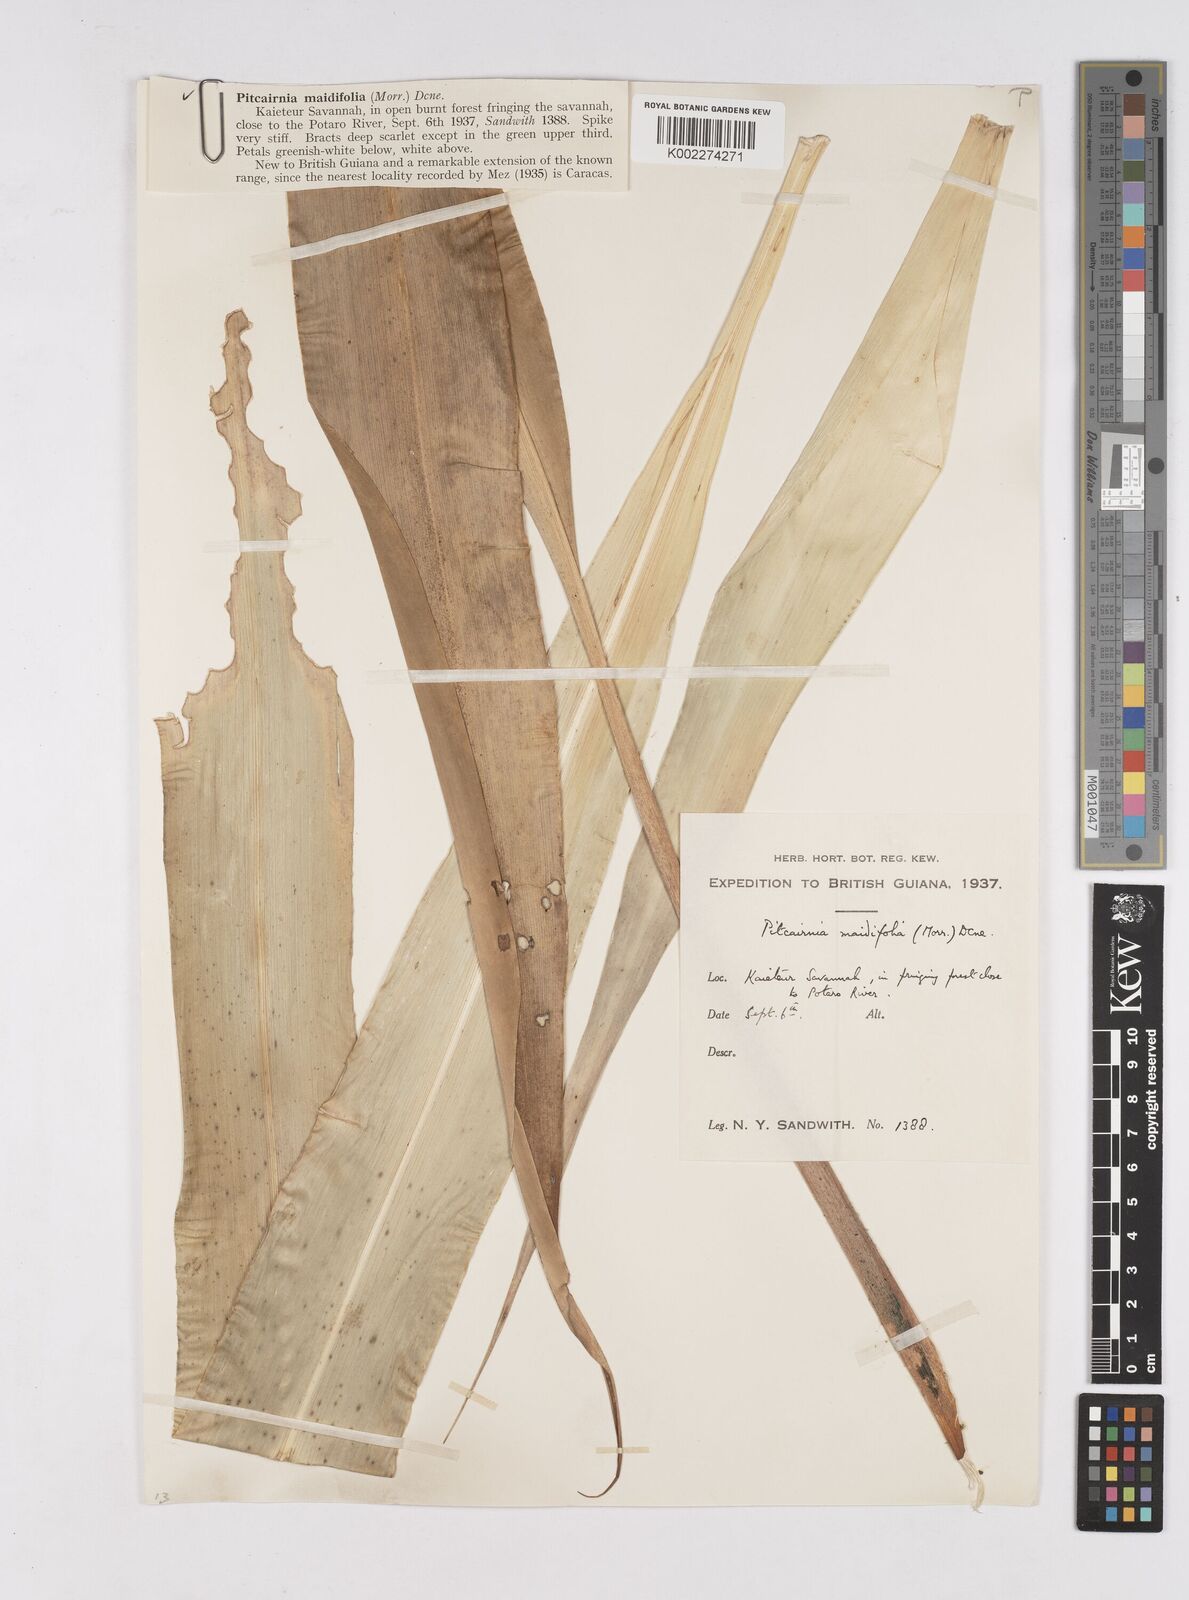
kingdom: Plantae
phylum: Tracheophyta
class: Liliopsida
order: Poales
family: Bromeliaceae
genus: Pitcairnia
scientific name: Pitcairnia maidifolia
